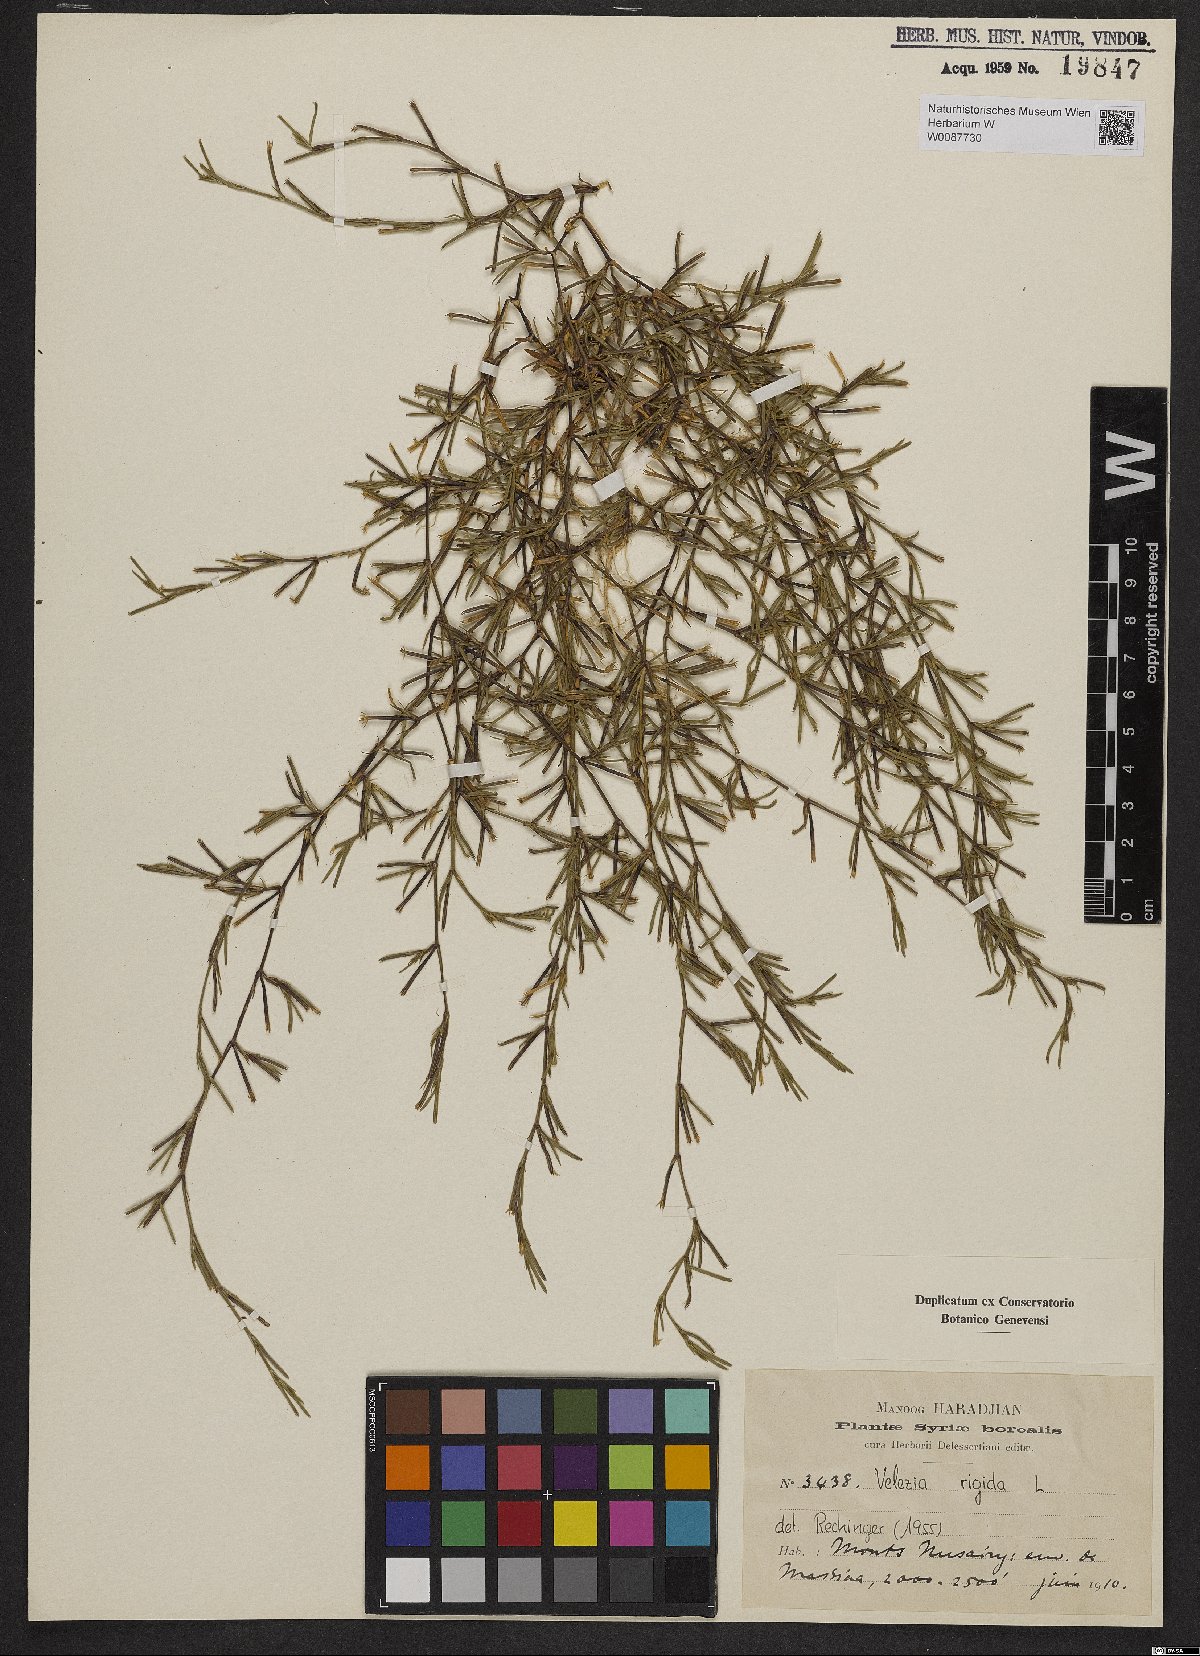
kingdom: Plantae
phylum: Tracheophyta
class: Magnoliopsida
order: Caryophyllales
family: Caryophyllaceae
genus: Dianthus
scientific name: Dianthus nudiflorus
